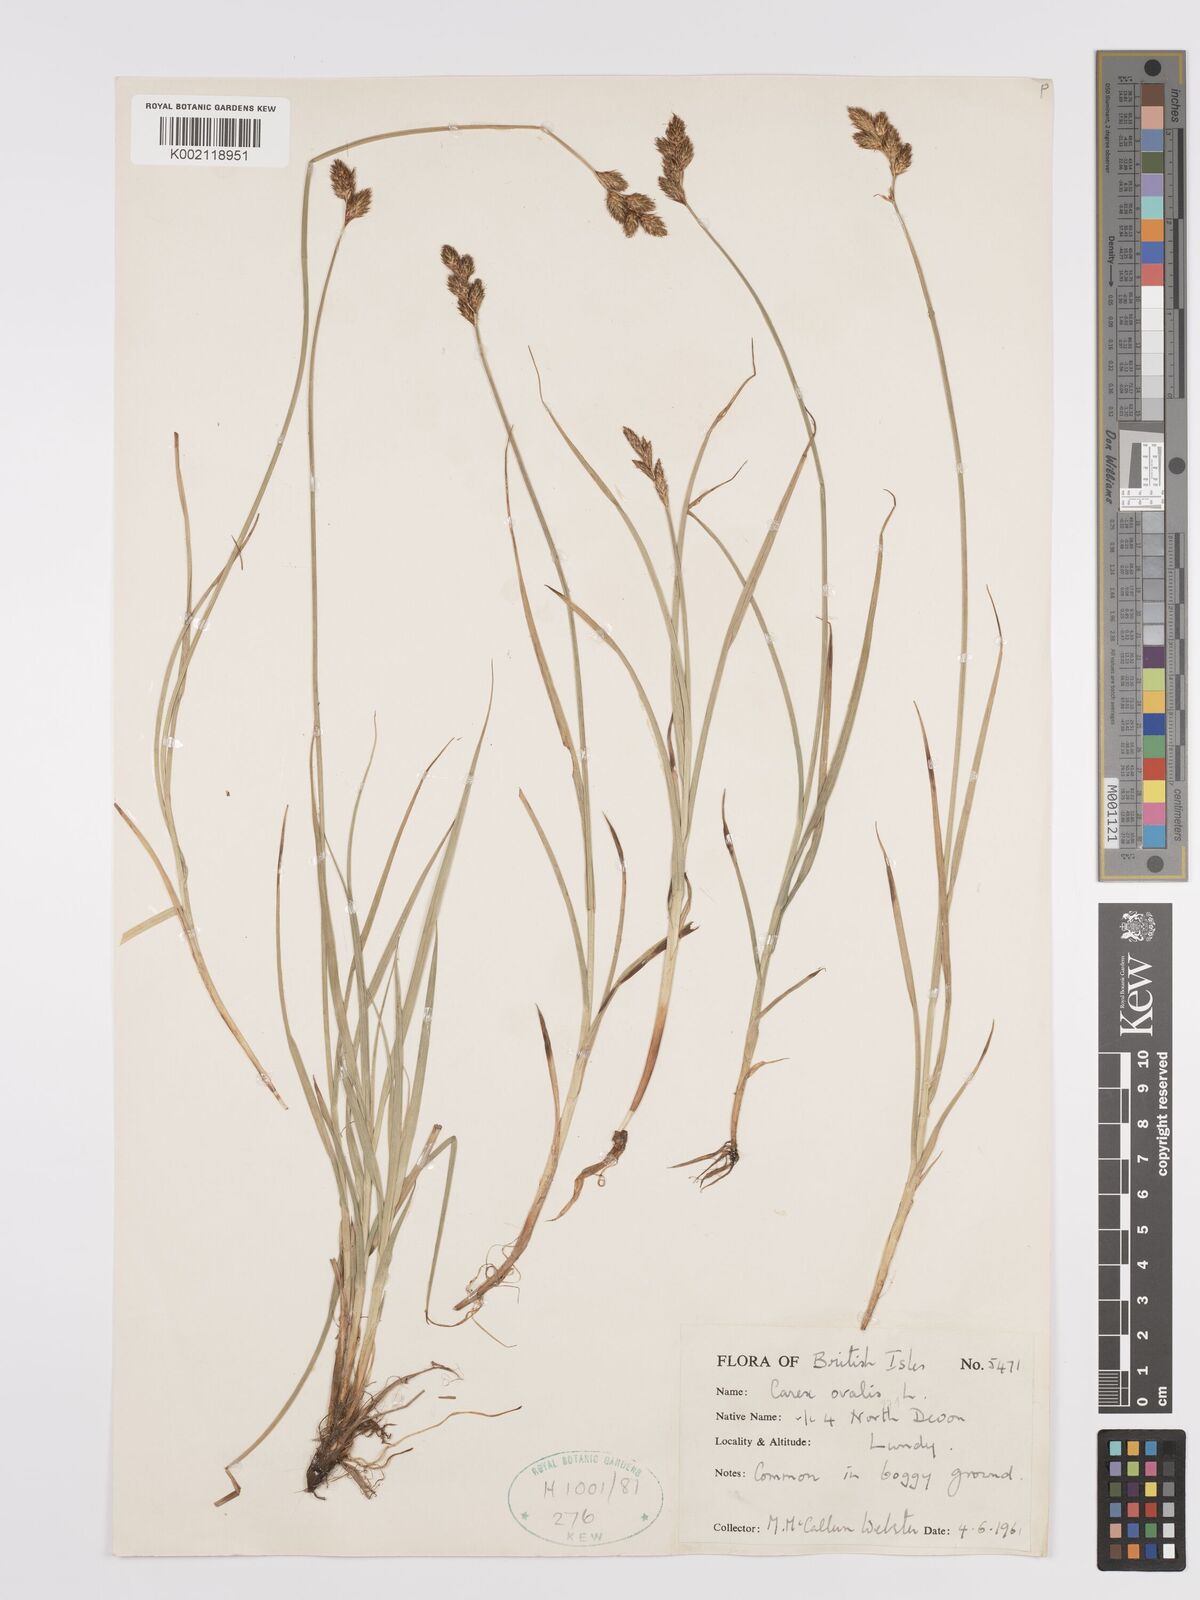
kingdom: Plantae
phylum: Tracheophyta
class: Liliopsida
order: Poales
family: Cyperaceae
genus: Carex
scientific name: Carex leporina
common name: Oval sedge
